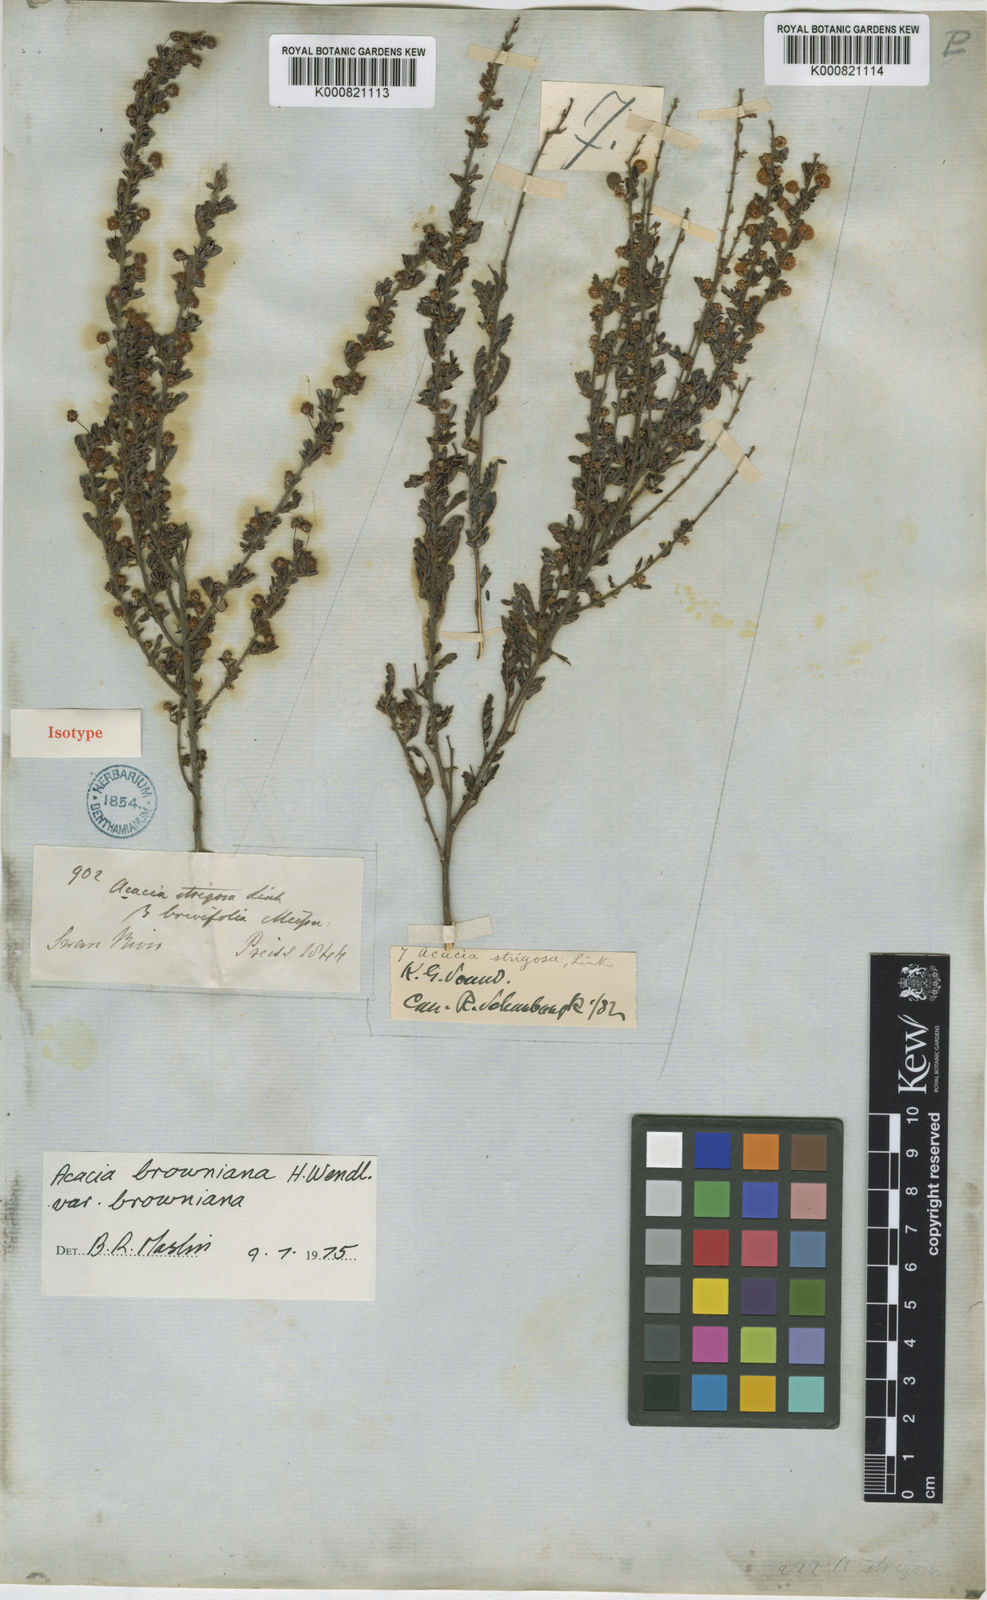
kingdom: Plantae
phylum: Tracheophyta
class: Magnoliopsida
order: Fabales
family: Fabaceae
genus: Acacia
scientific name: Acacia browniana
